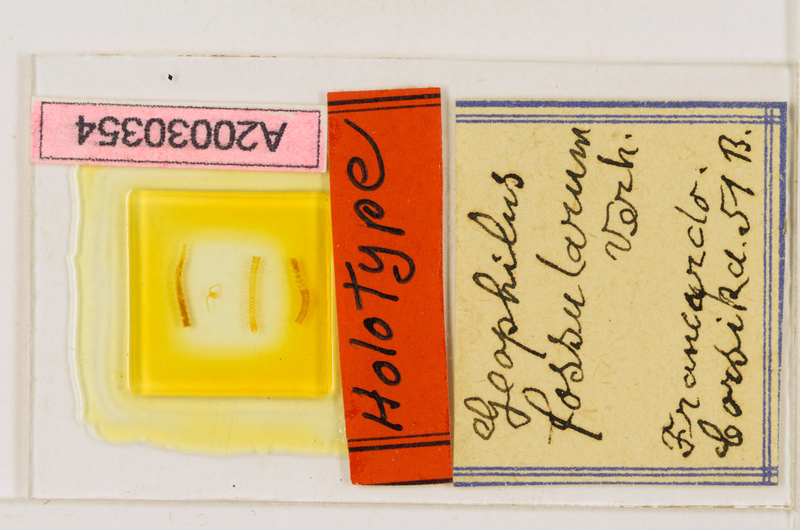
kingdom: Animalia
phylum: Arthropoda
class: Chilopoda
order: Geophilomorpha
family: Geophilidae
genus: Geophilus
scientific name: Geophilus joyeuxi
